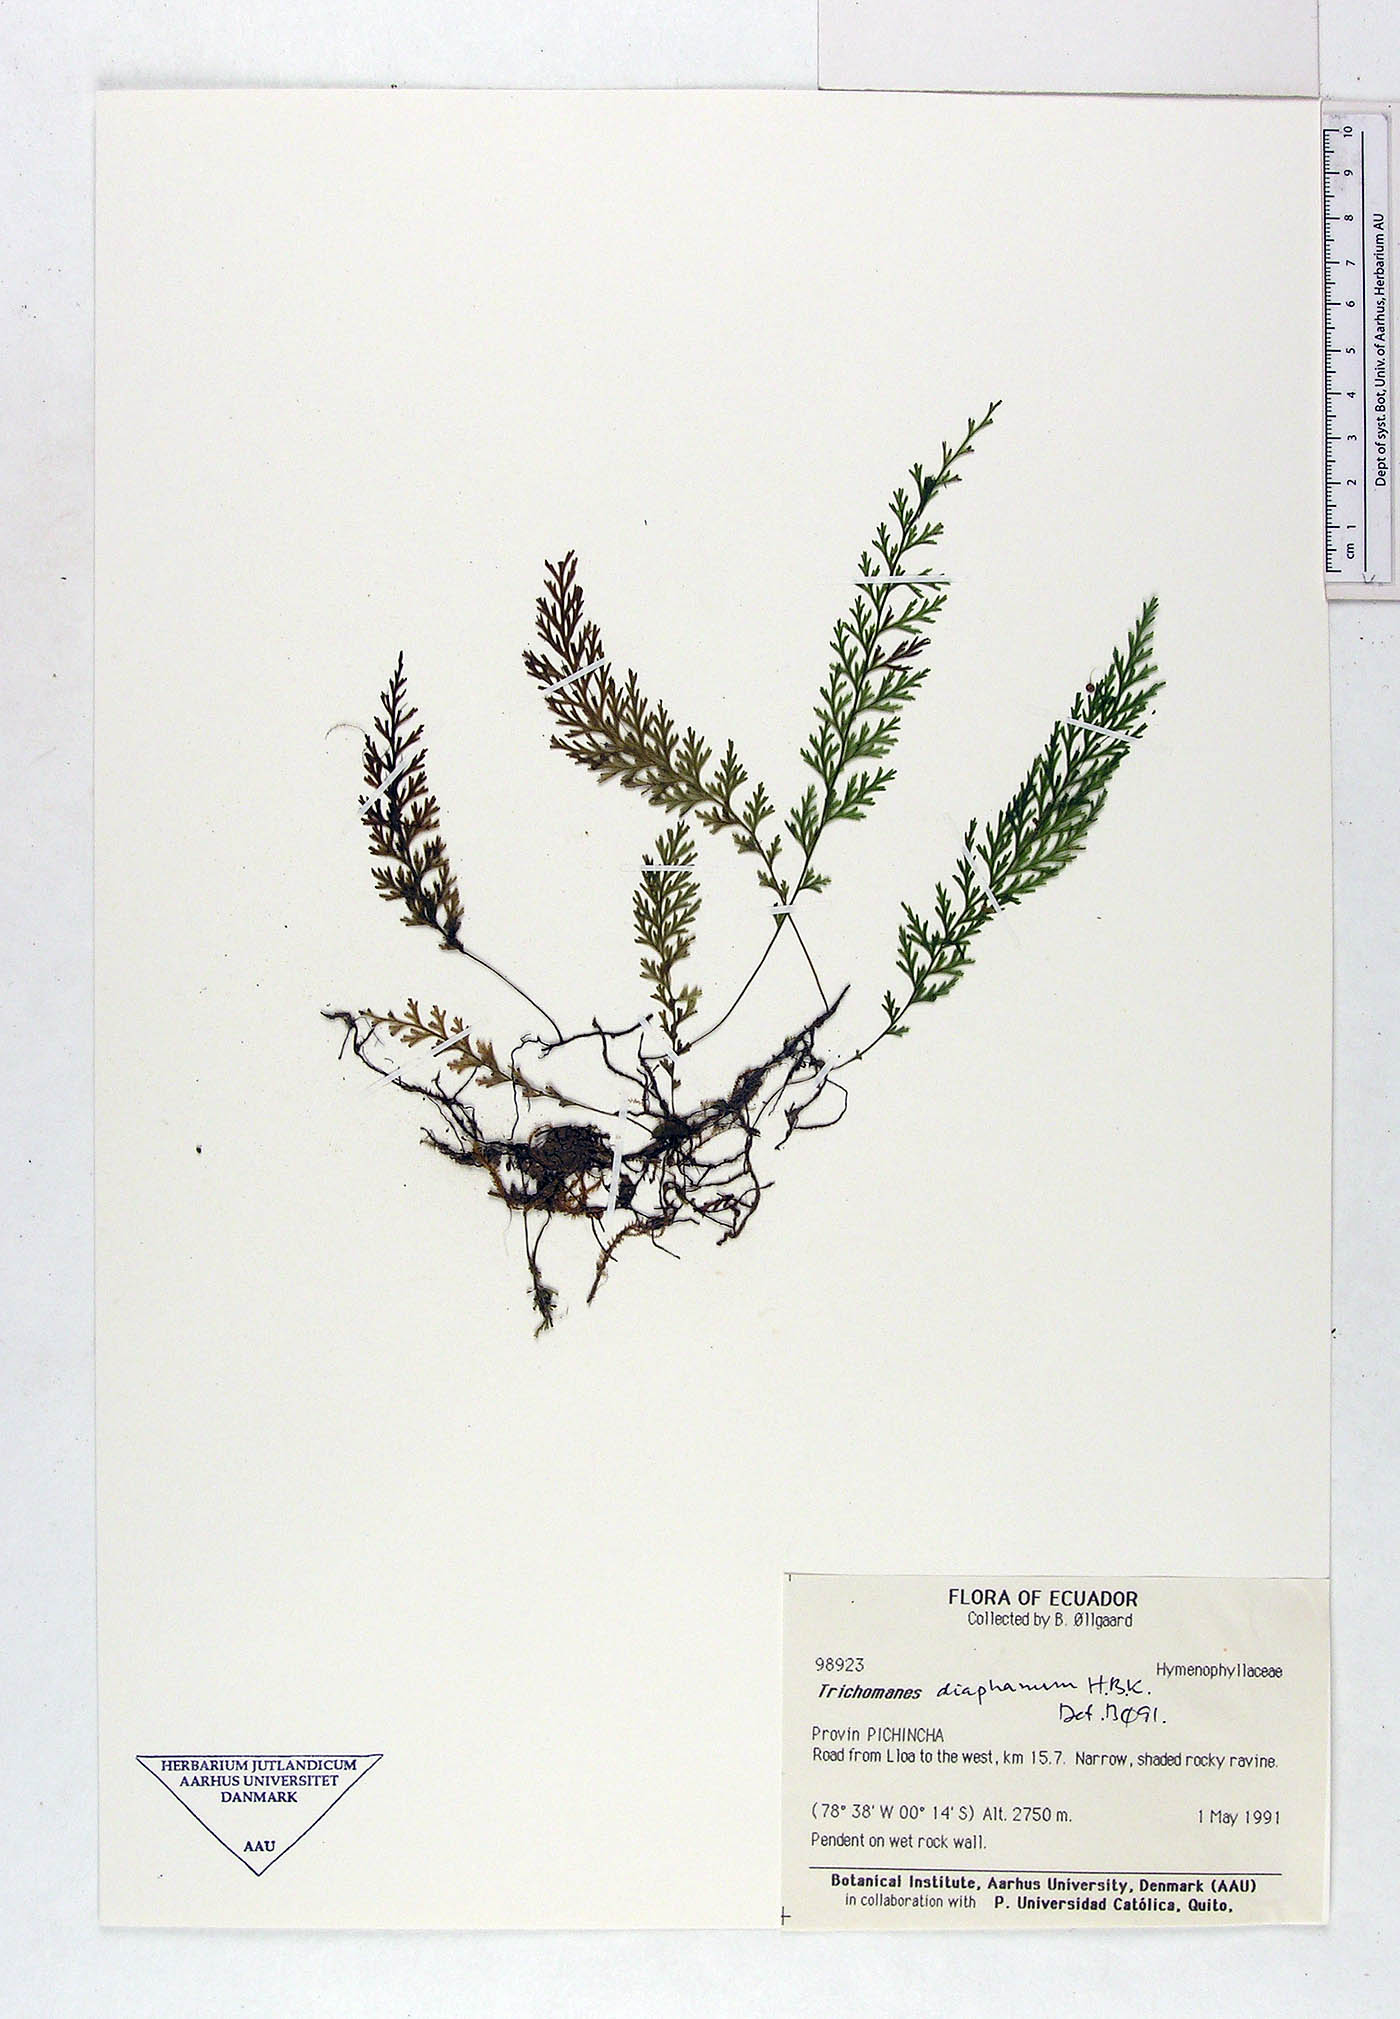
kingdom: Plantae
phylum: Tracheophyta
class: Polypodiopsida
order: Hymenophyllales
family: Hymenophyllaceae
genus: Polyphlebium
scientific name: Polyphlebium diaphanum
